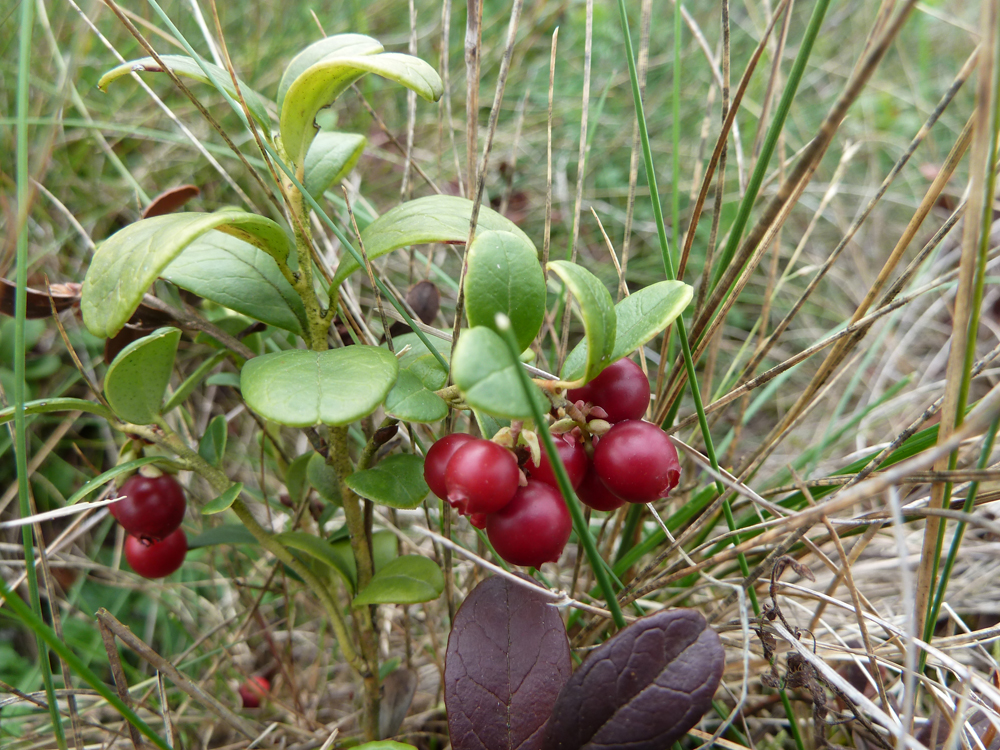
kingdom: Plantae
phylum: Tracheophyta
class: Magnoliopsida
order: Ericales
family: Ericaceae
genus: Vaccinium
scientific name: Vaccinium vitis-idaea
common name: Cowberry
